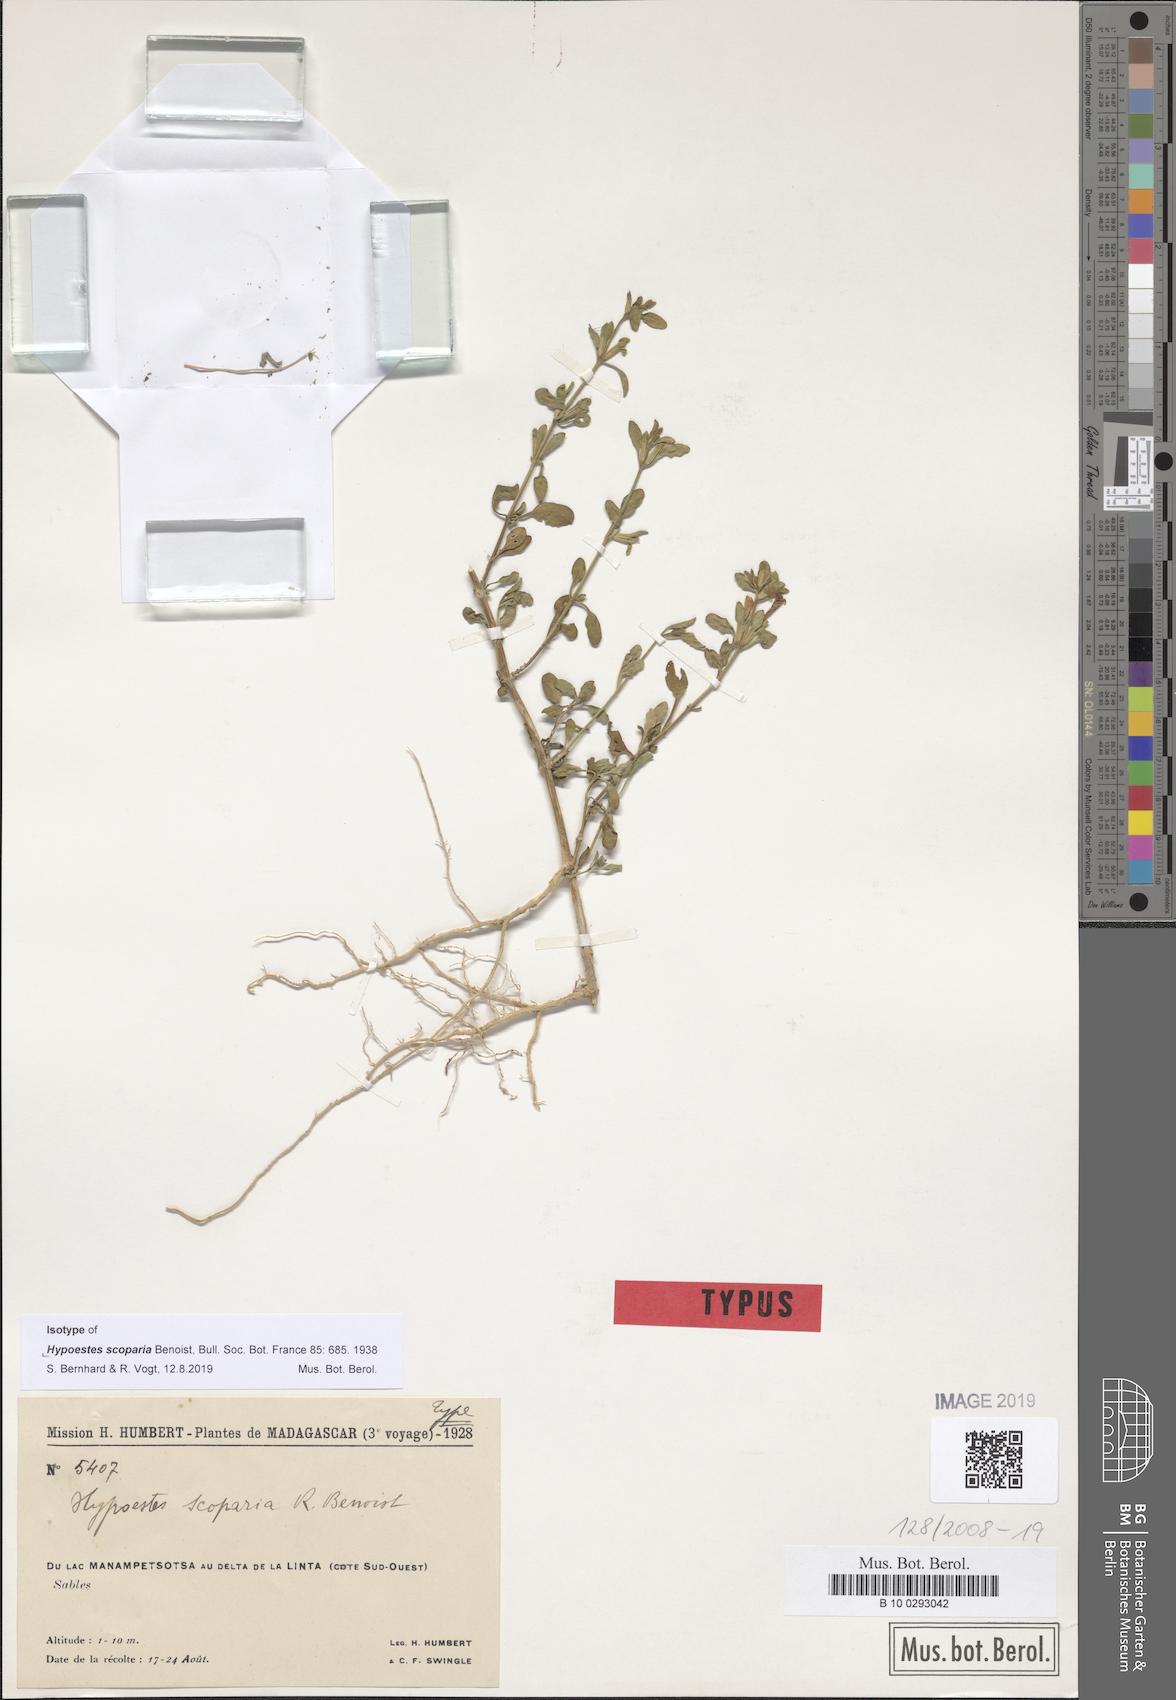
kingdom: Plantae
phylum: Tracheophyta
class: Magnoliopsida
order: Lamiales
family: Acanthaceae
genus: Hypoestes
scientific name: Hypoestes scoparia
